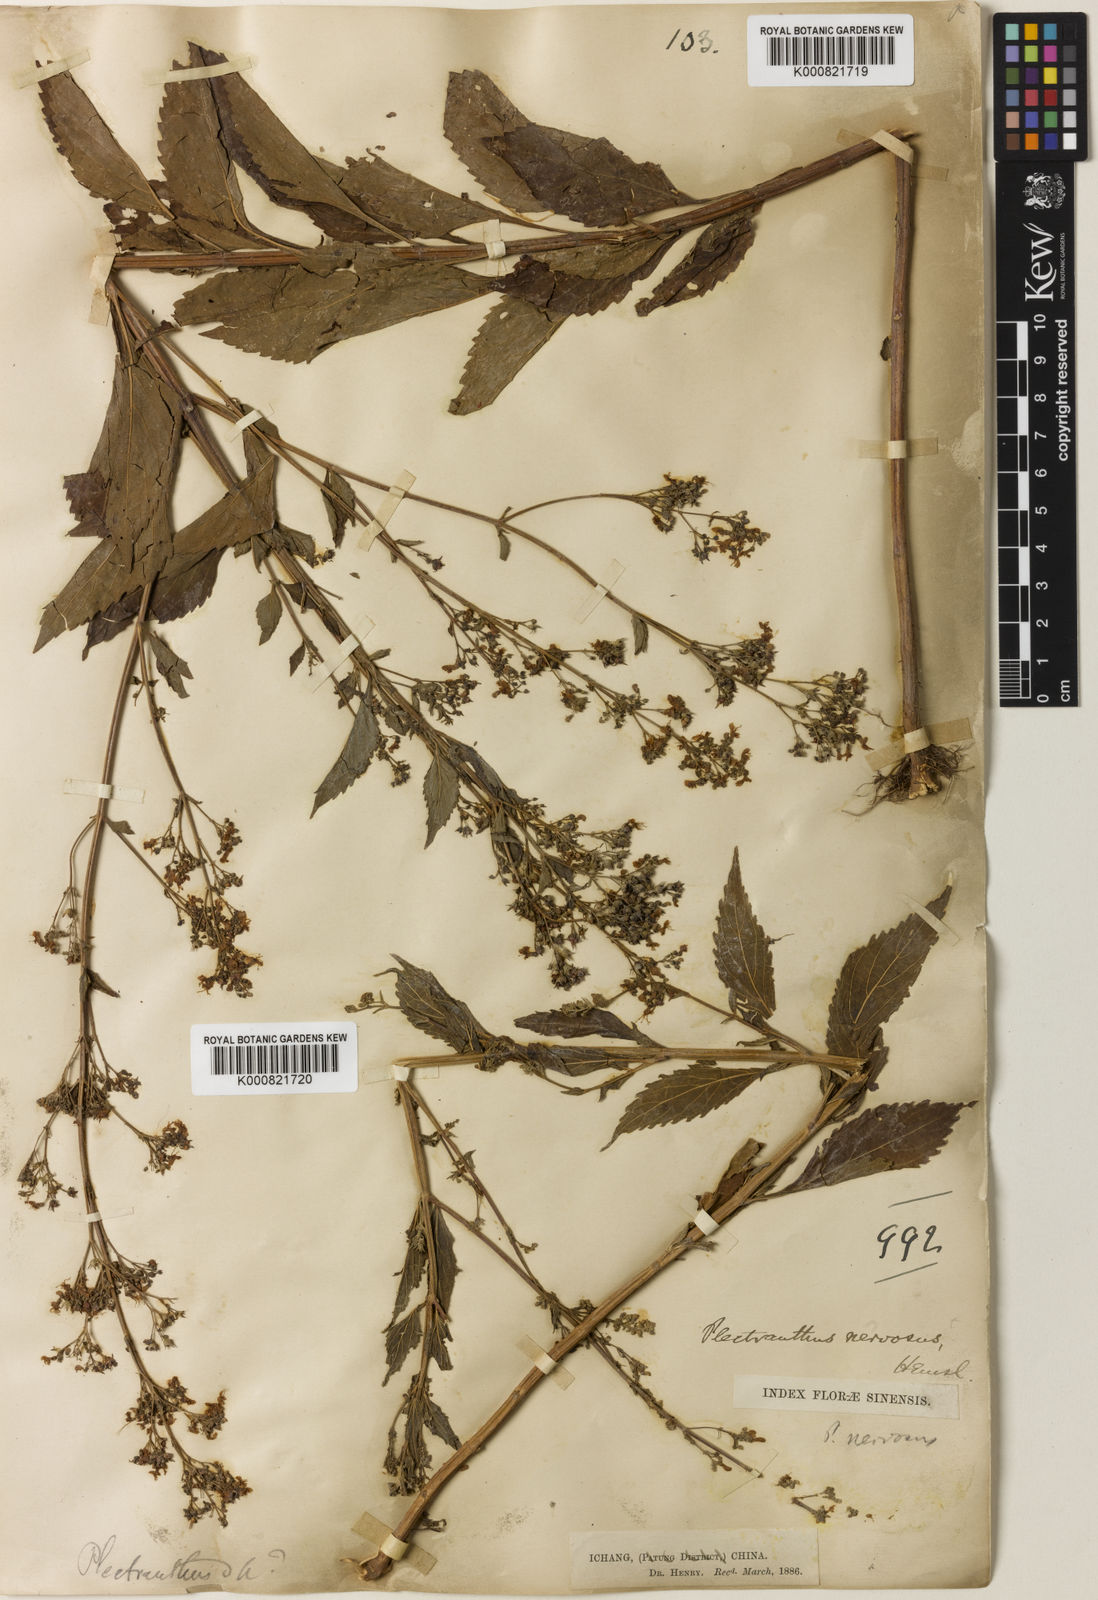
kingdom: Plantae
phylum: Tracheophyta
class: Magnoliopsida
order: Lamiales
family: Lamiaceae
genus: Isodon
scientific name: Isodon
